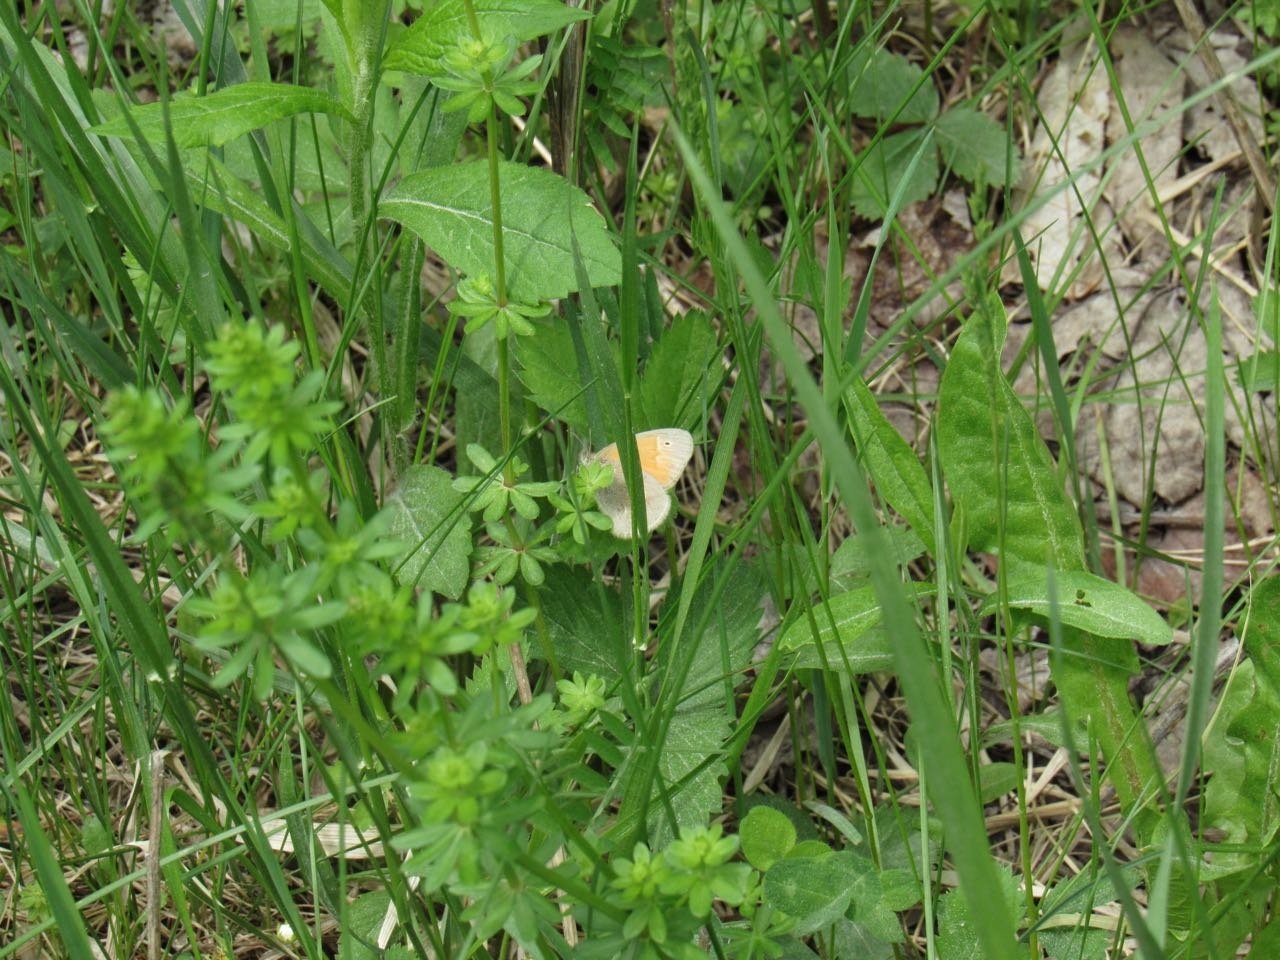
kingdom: Animalia
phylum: Arthropoda
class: Insecta
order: Lepidoptera
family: Nymphalidae
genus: Coenonympha
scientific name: Coenonympha tullia
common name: Large Heath
